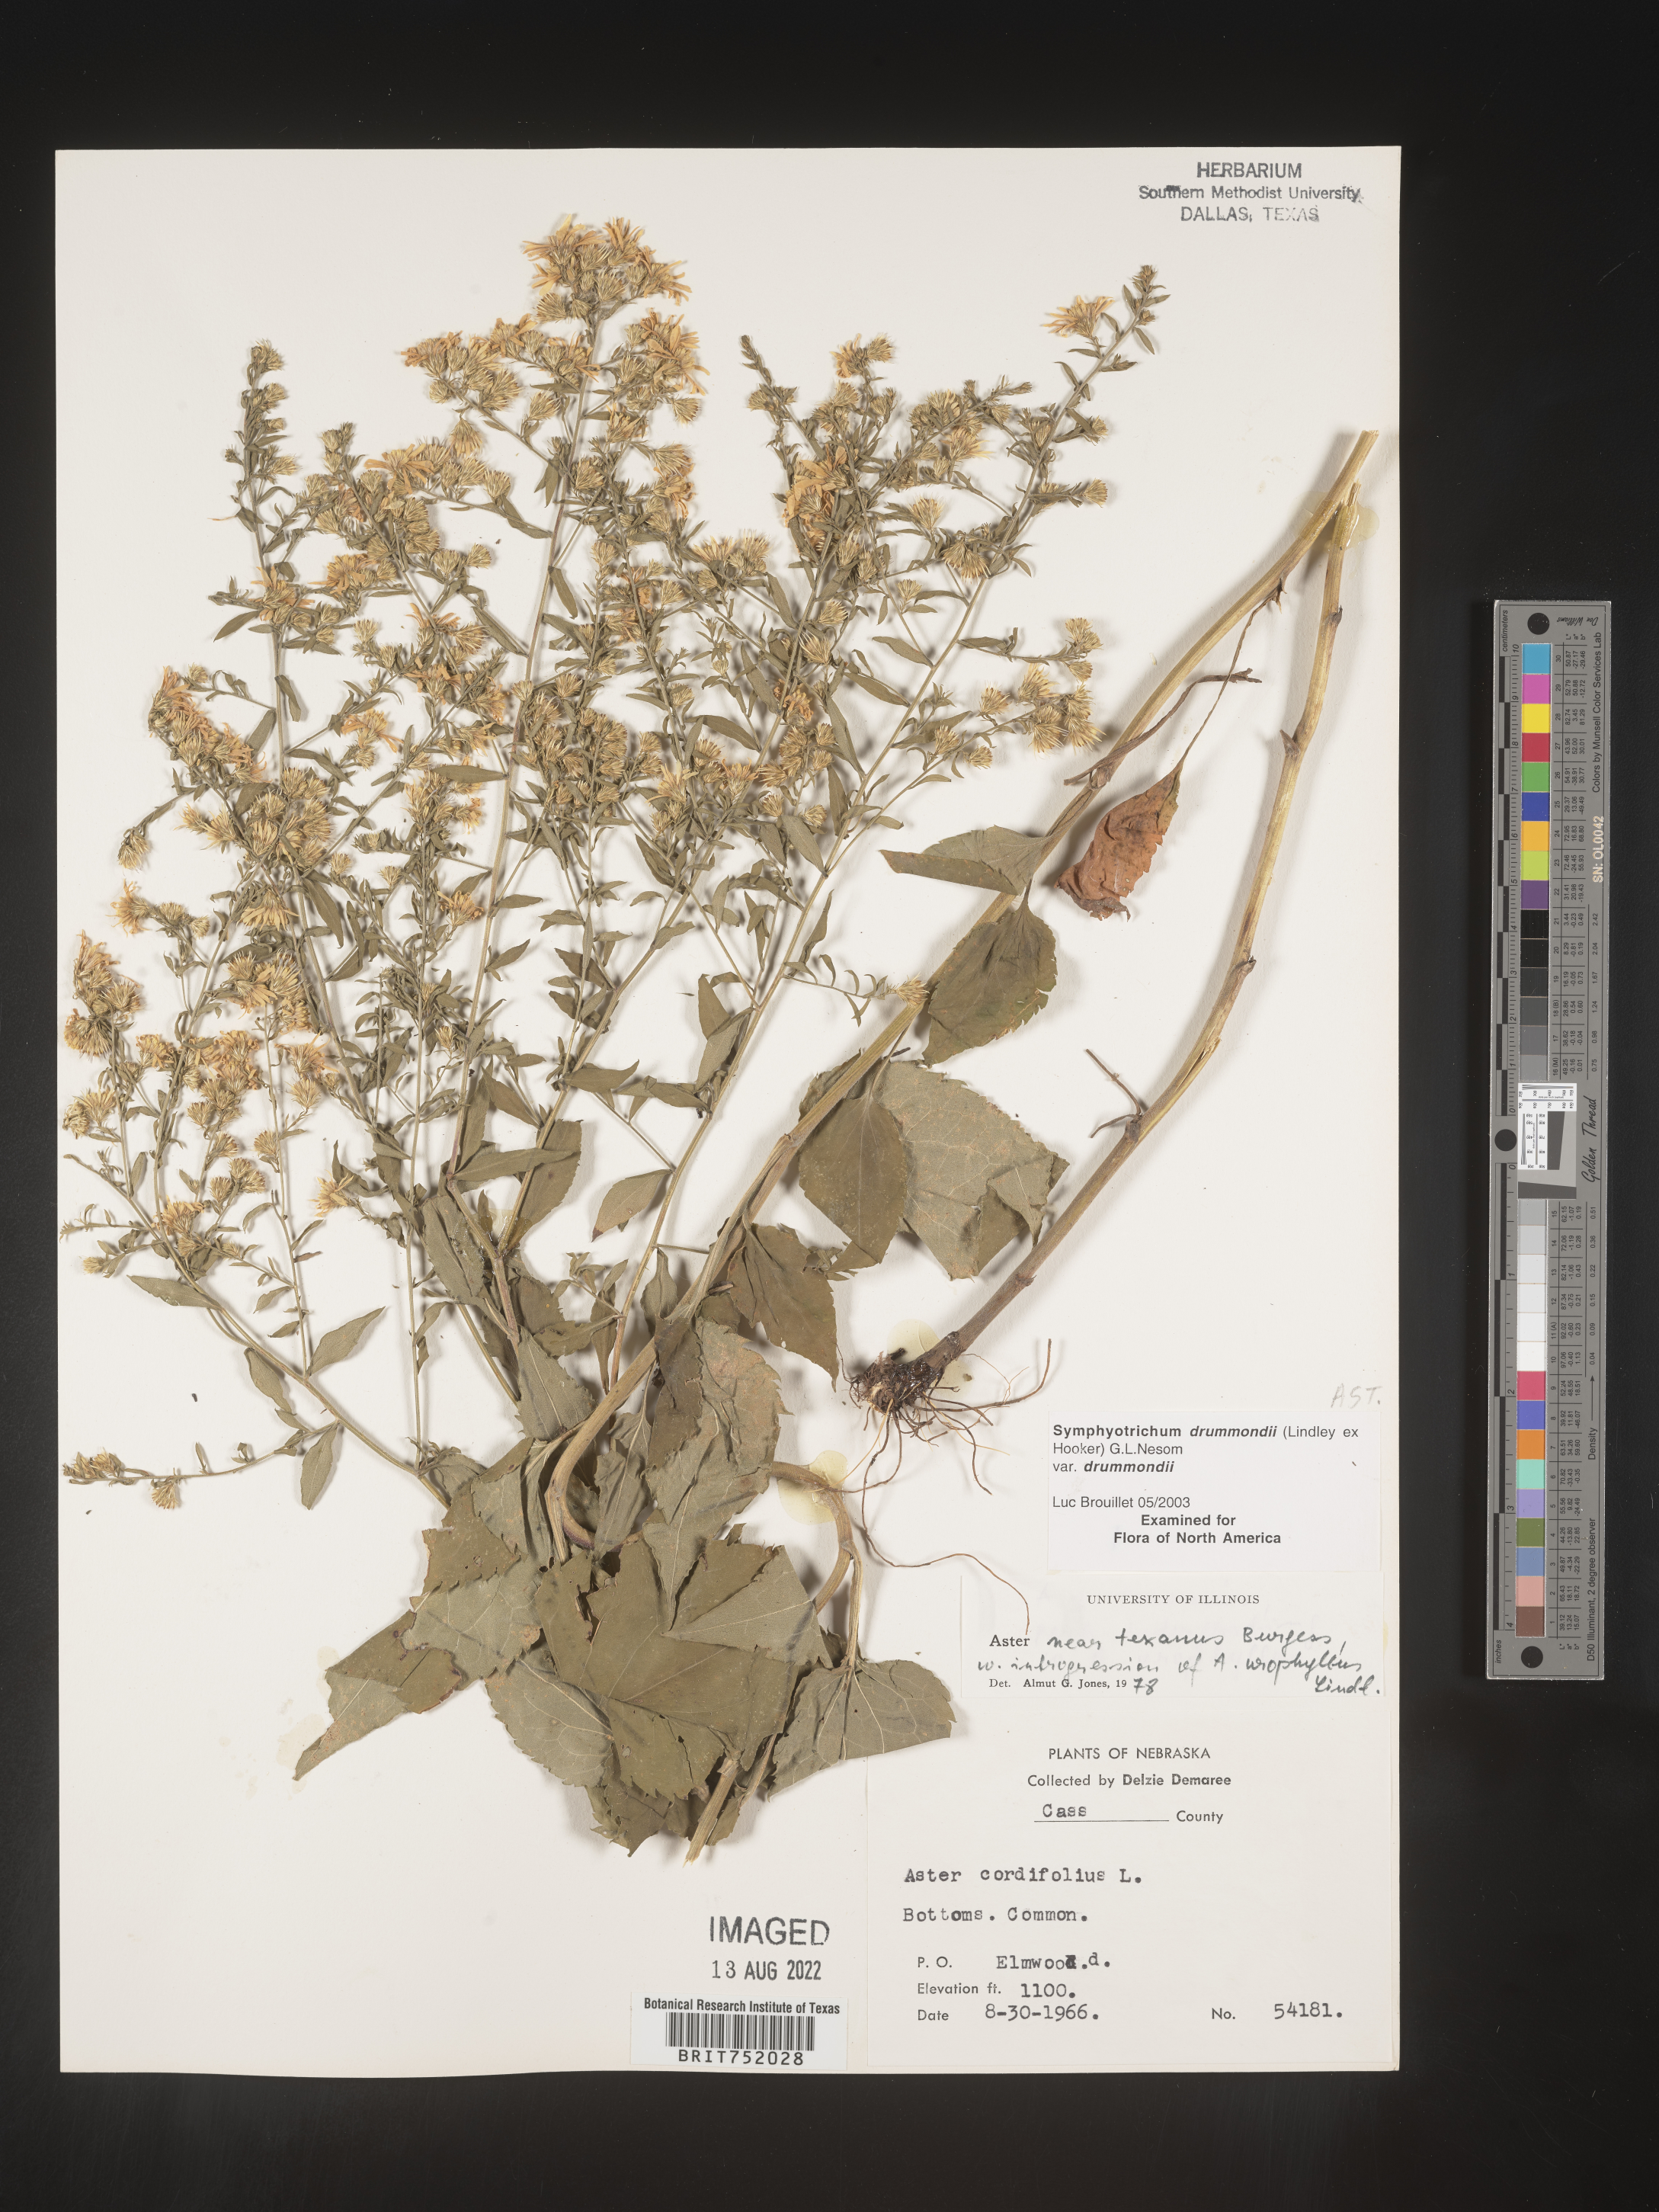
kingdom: Plantae
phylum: Tracheophyta
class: Magnoliopsida
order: Asterales
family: Asteraceae
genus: Symphyotrichum
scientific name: Symphyotrichum drummondii
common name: Drummond's aster
